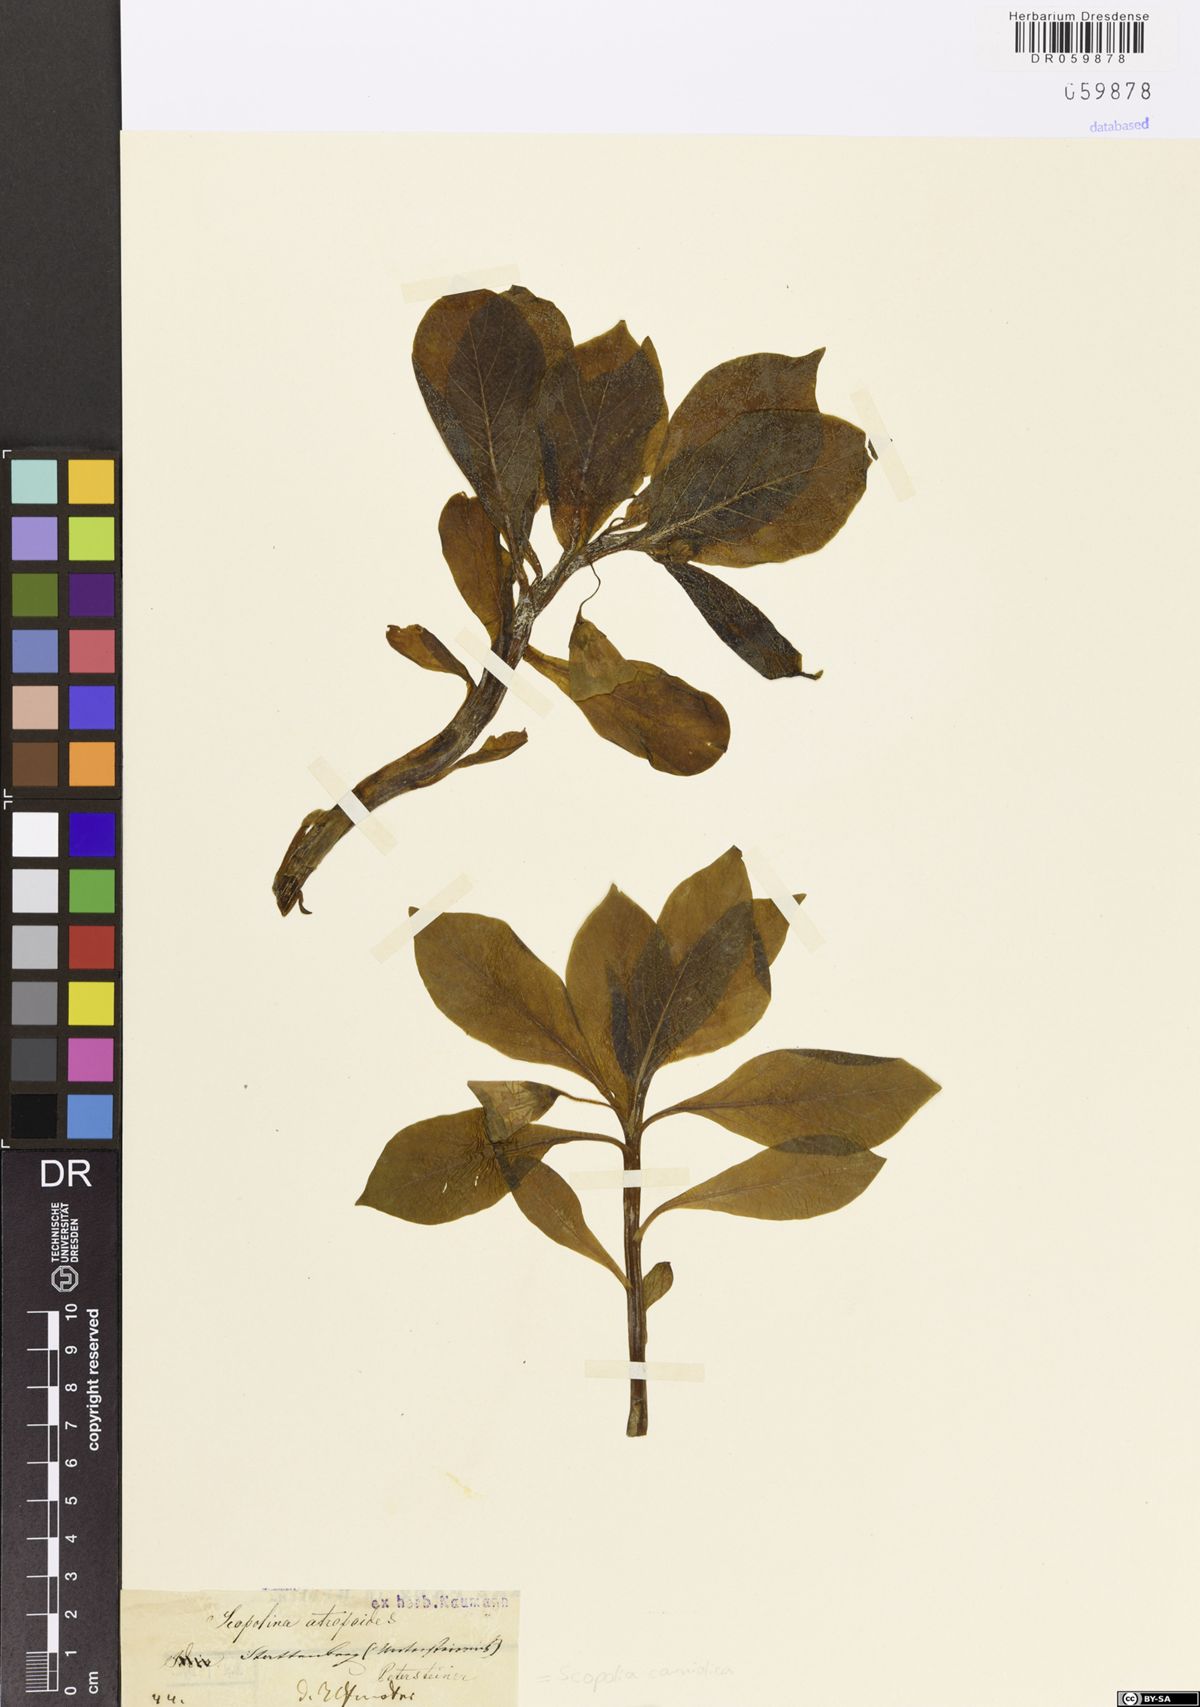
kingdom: Plantae
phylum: Tracheophyta
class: Magnoliopsida
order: Solanales
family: Solanaceae
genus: Scopolia
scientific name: Scopolia carniolica
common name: Scopolia
